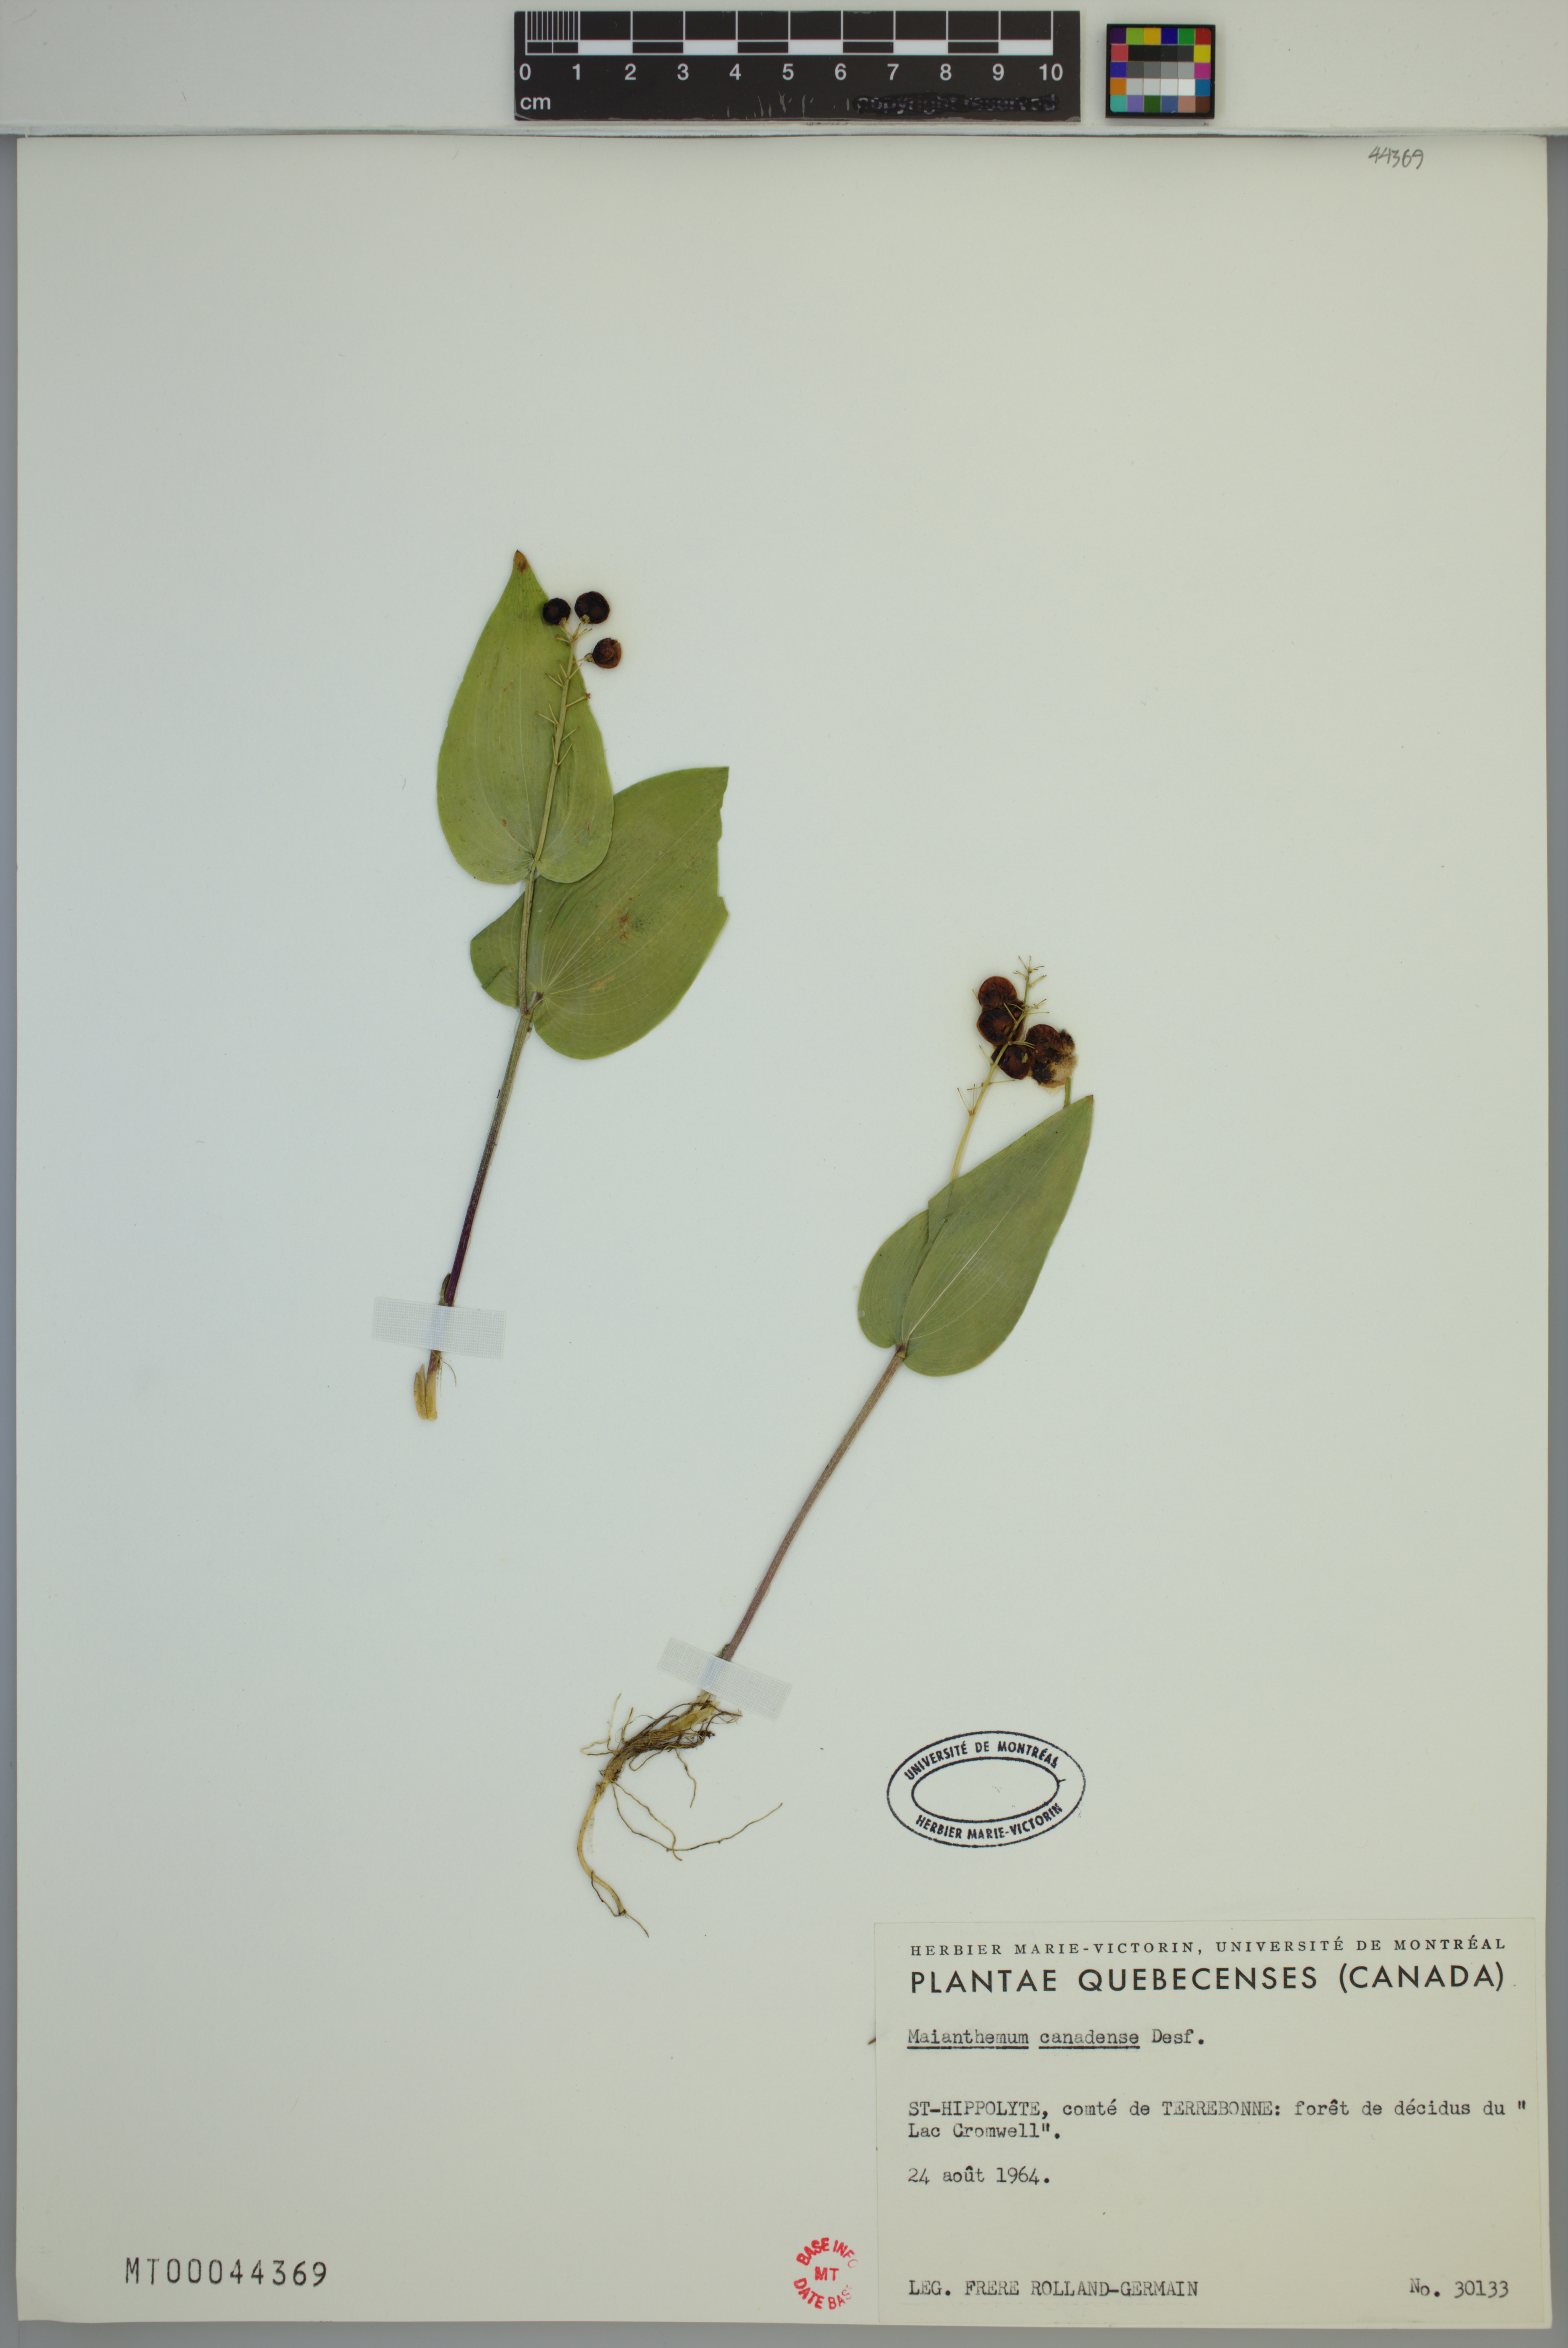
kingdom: Plantae
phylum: Tracheophyta
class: Liliopsida
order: Asparagales
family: Asparagaceae
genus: Maianthemum
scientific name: Maianthemum canadense
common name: False lily-of-the-valley
